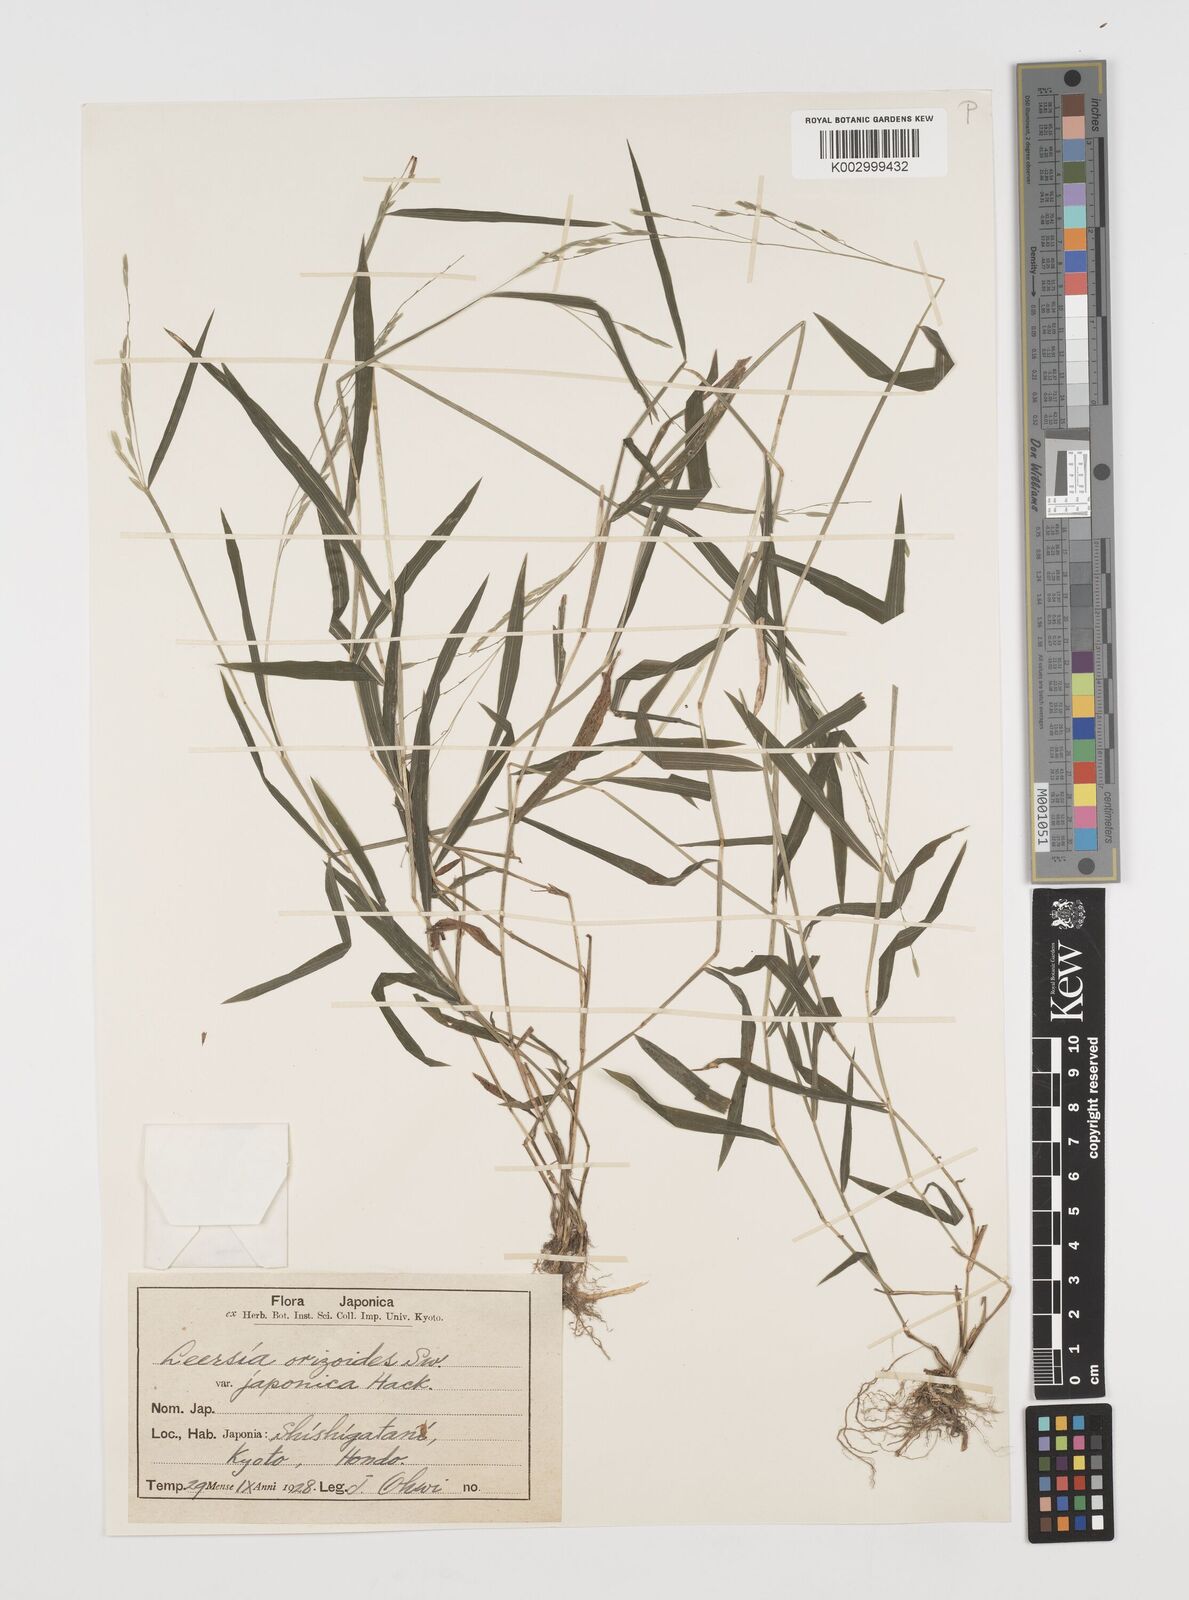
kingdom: Plantae
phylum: Tracheophyta
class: Liliopsida
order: Poales
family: Poaceae
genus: Leersia
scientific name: Leersia sayanuka
